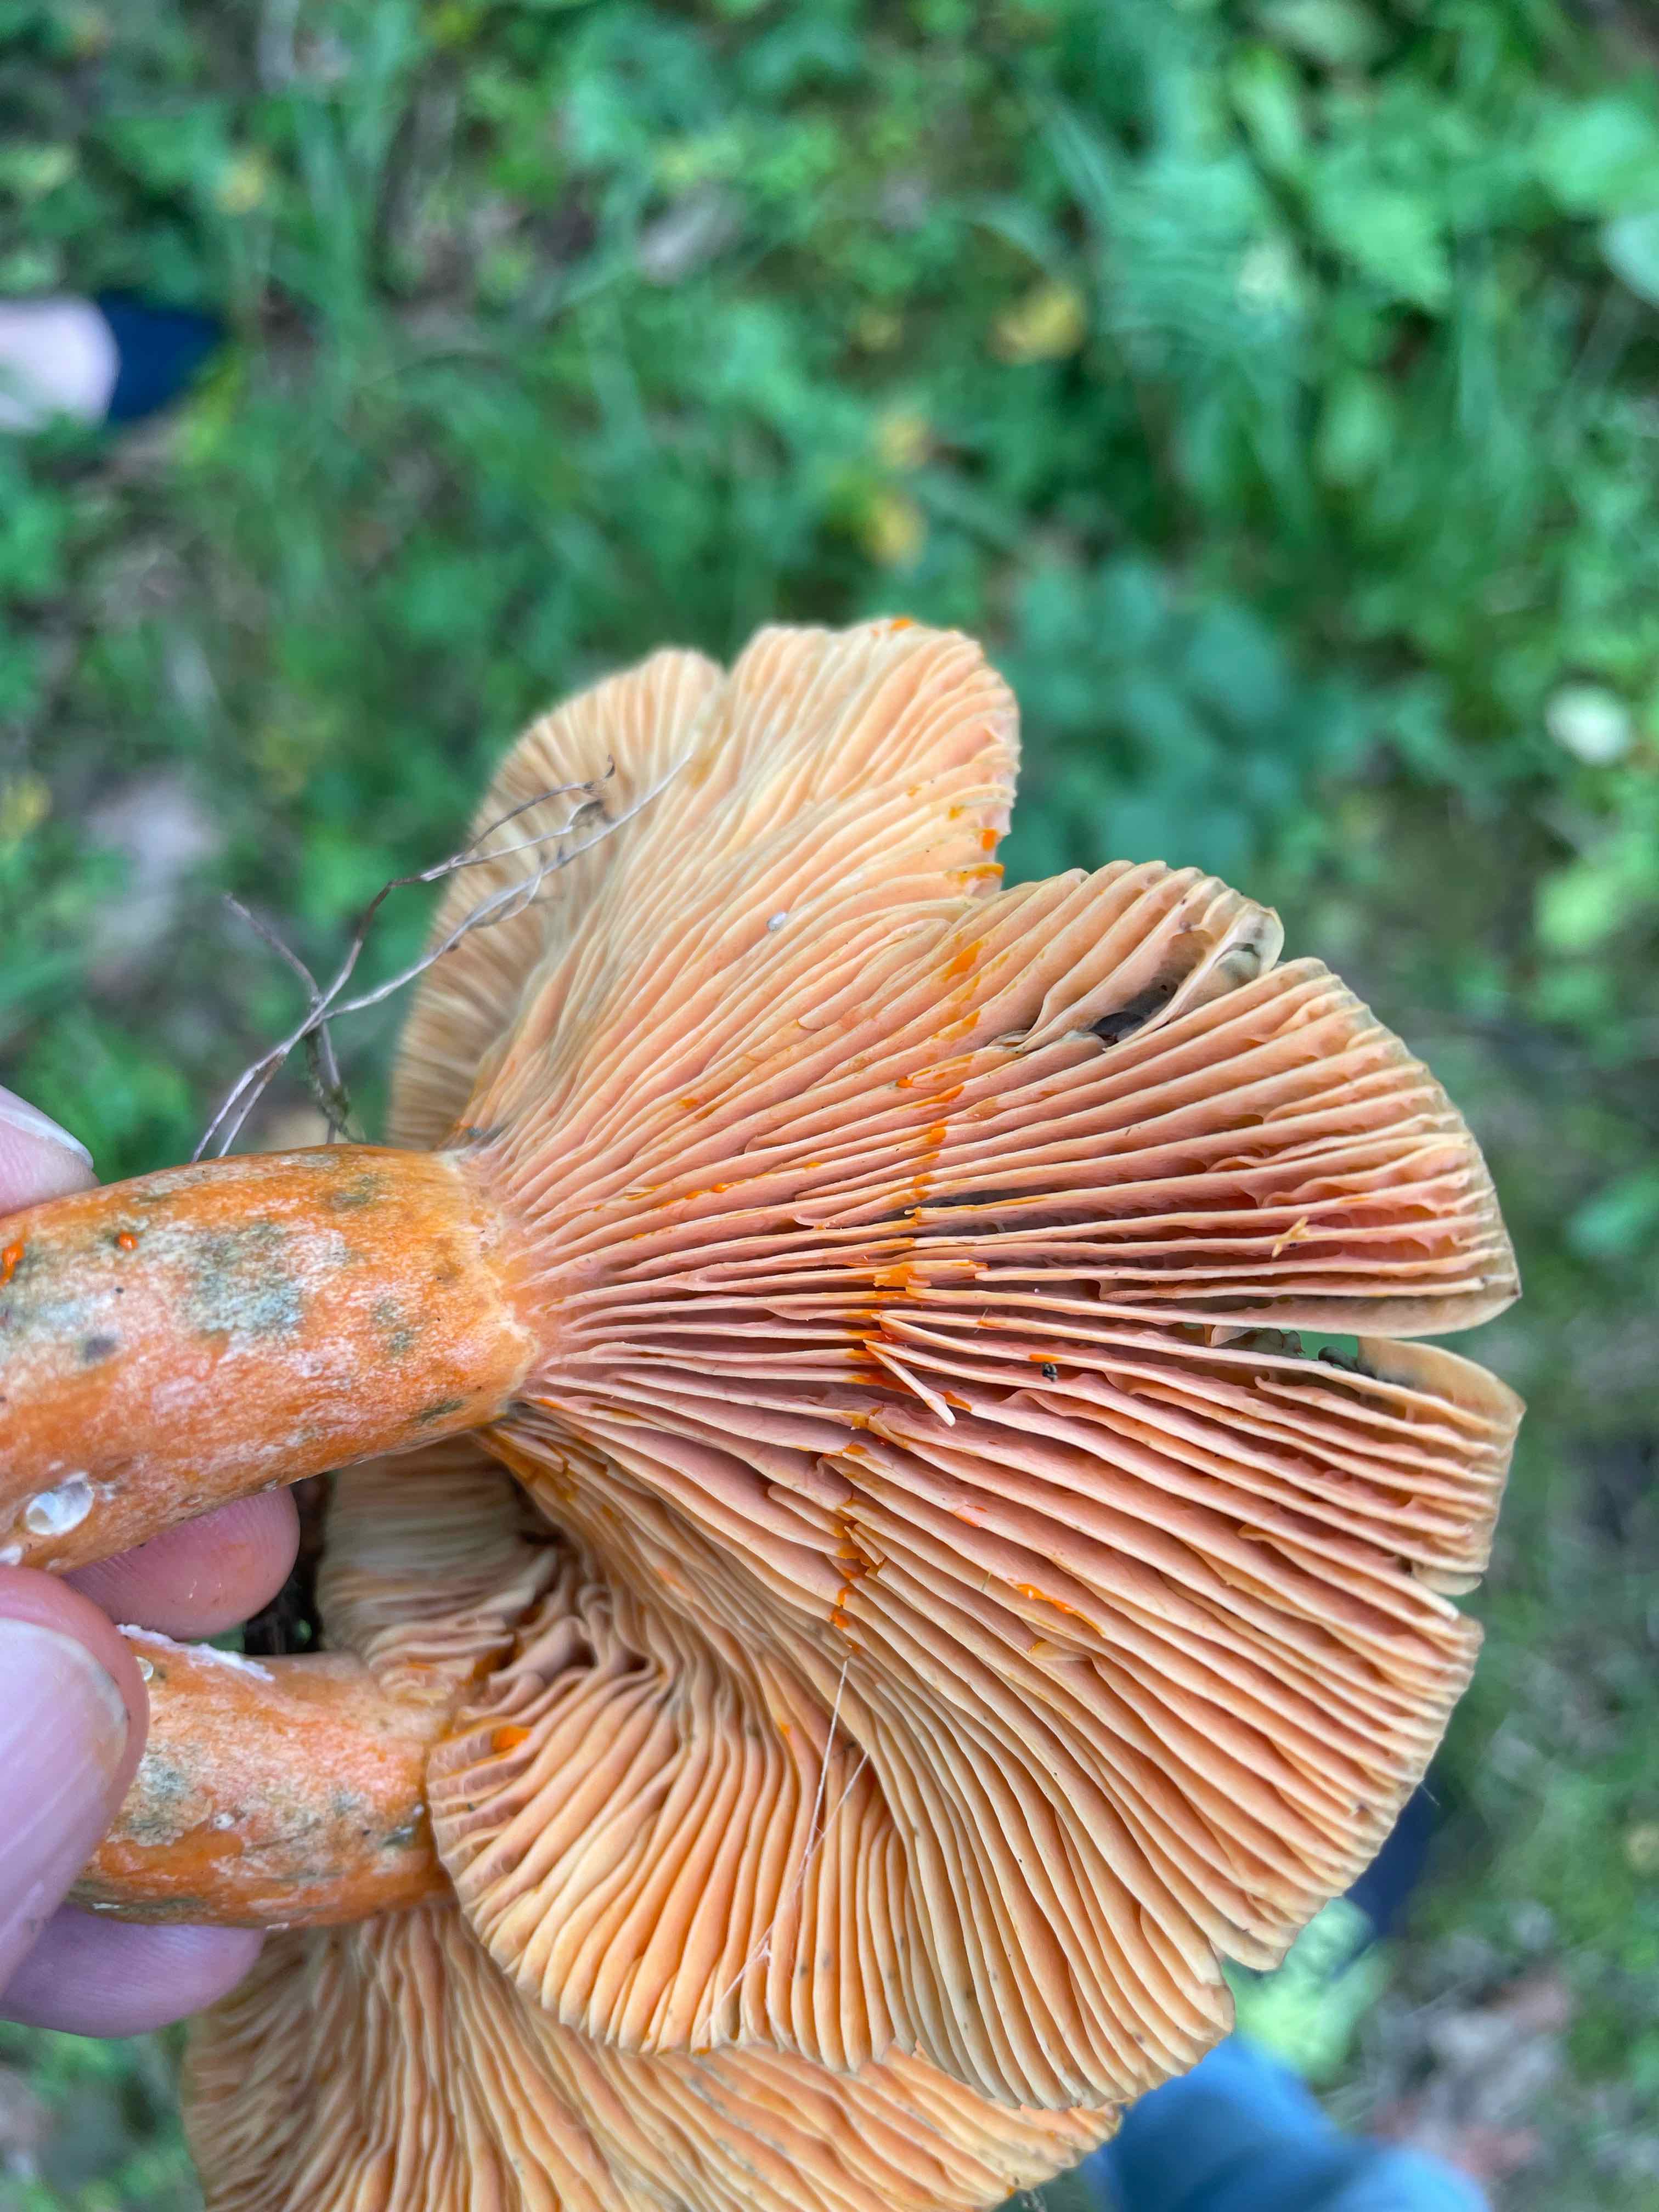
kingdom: Fungi
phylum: Basidiomycota
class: Agaricomycetes
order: Russulales
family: Russulaceae
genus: Lactarius
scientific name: Lactarius deterrimus
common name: gran-mælkehat
